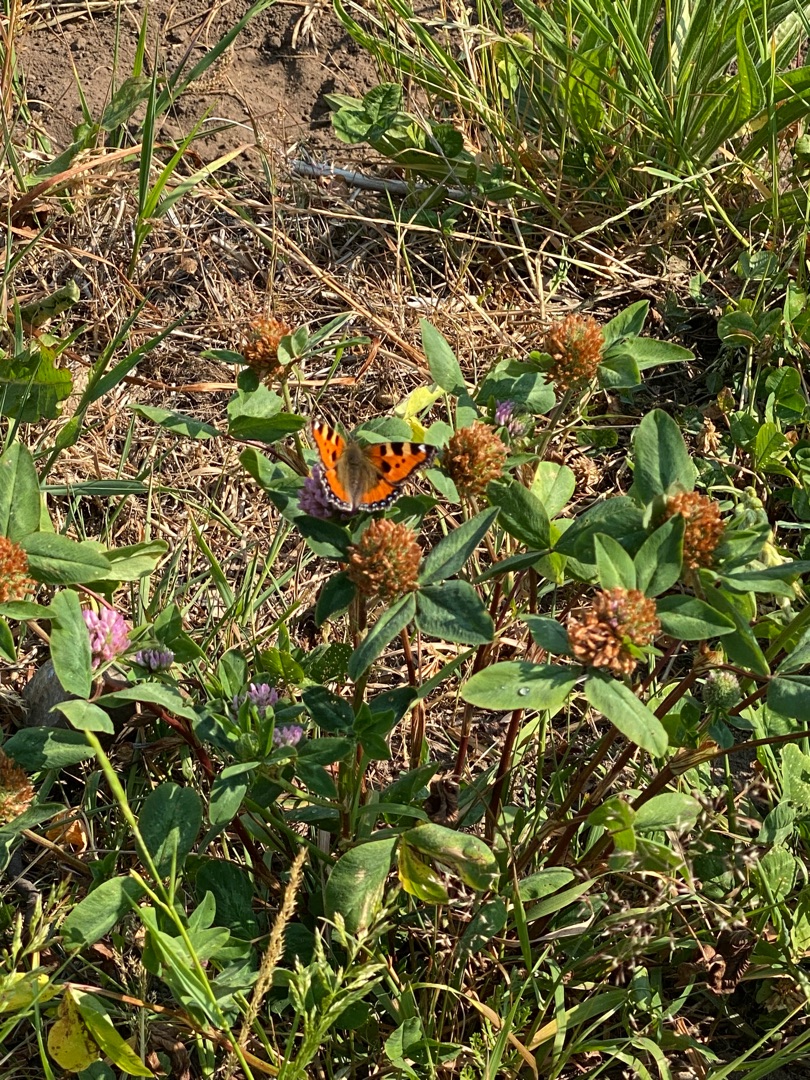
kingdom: Animalia
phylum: Arthropoda
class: Insecta
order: Lepidoptera
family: Nymphalidae
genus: Aglais
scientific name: Aglais urticae
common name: Nældens takvinge
